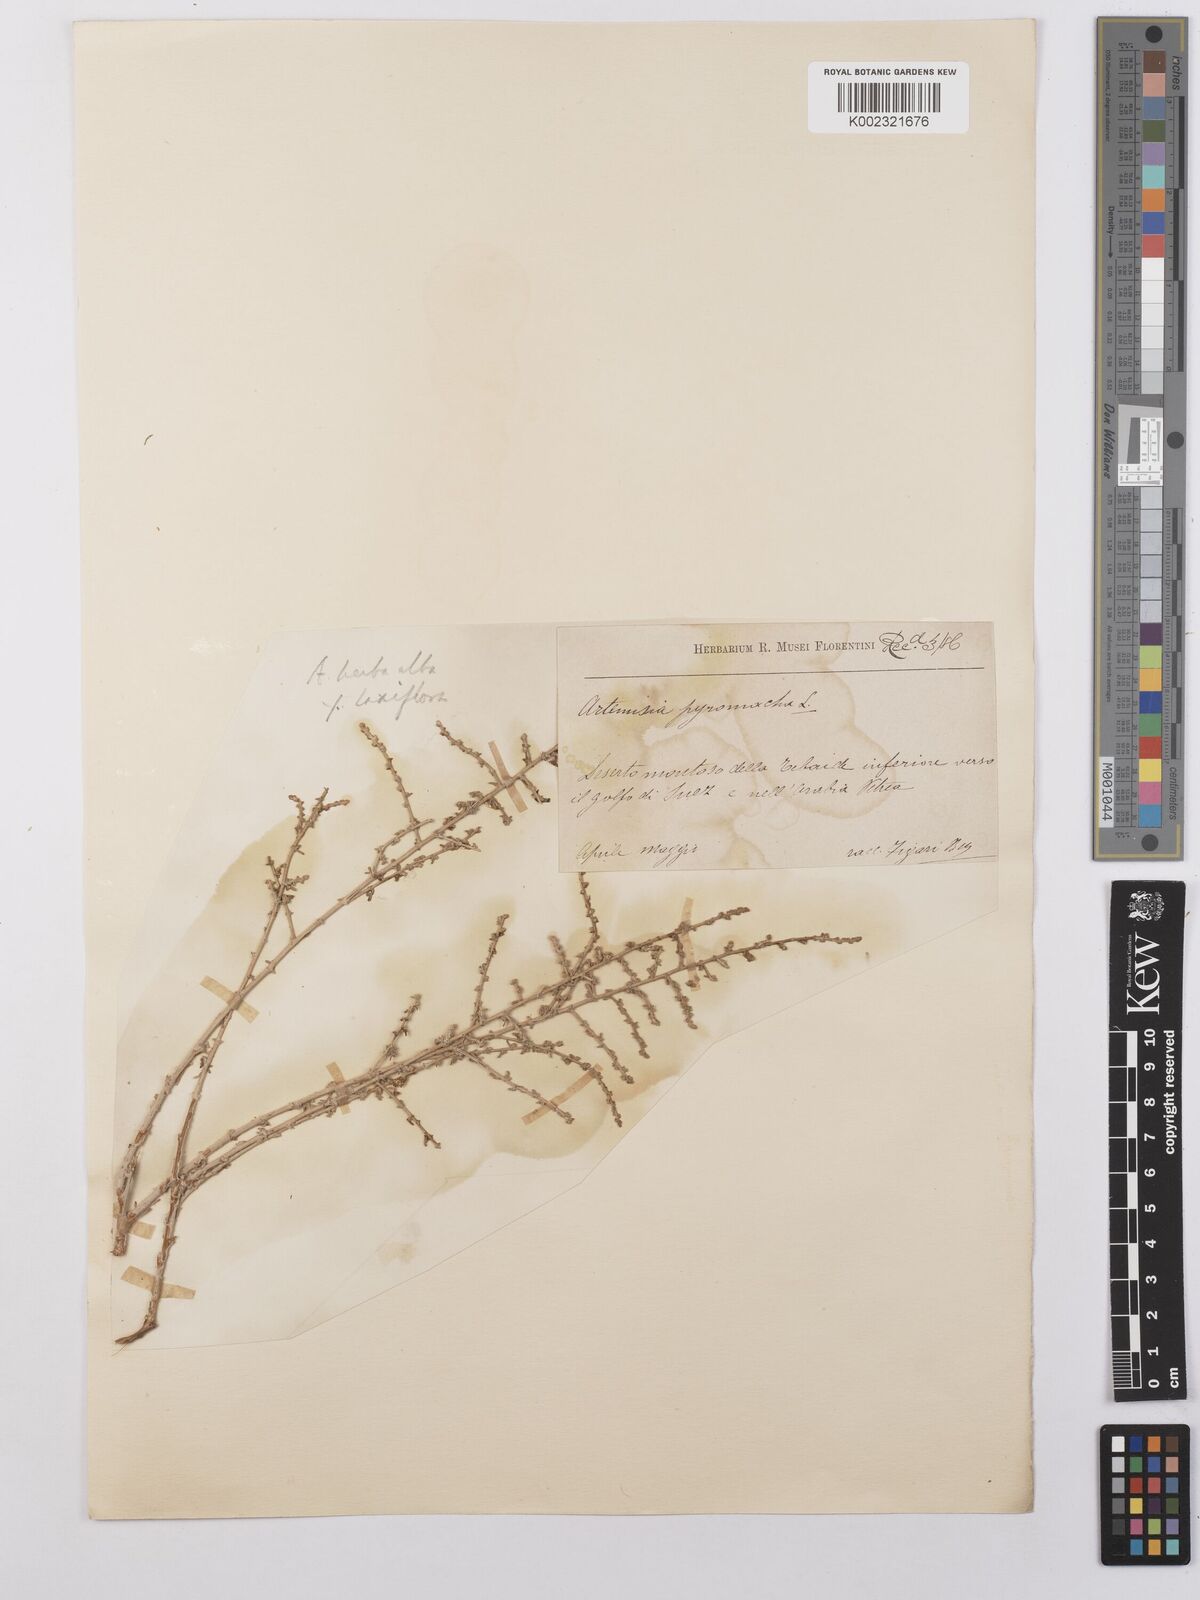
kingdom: Plantae
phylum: Tracheophyta
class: Magnoliopsida
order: Asterales
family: Asteraceae
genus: Artemisia
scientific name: Artemisia herba-alba
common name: White wormwood
